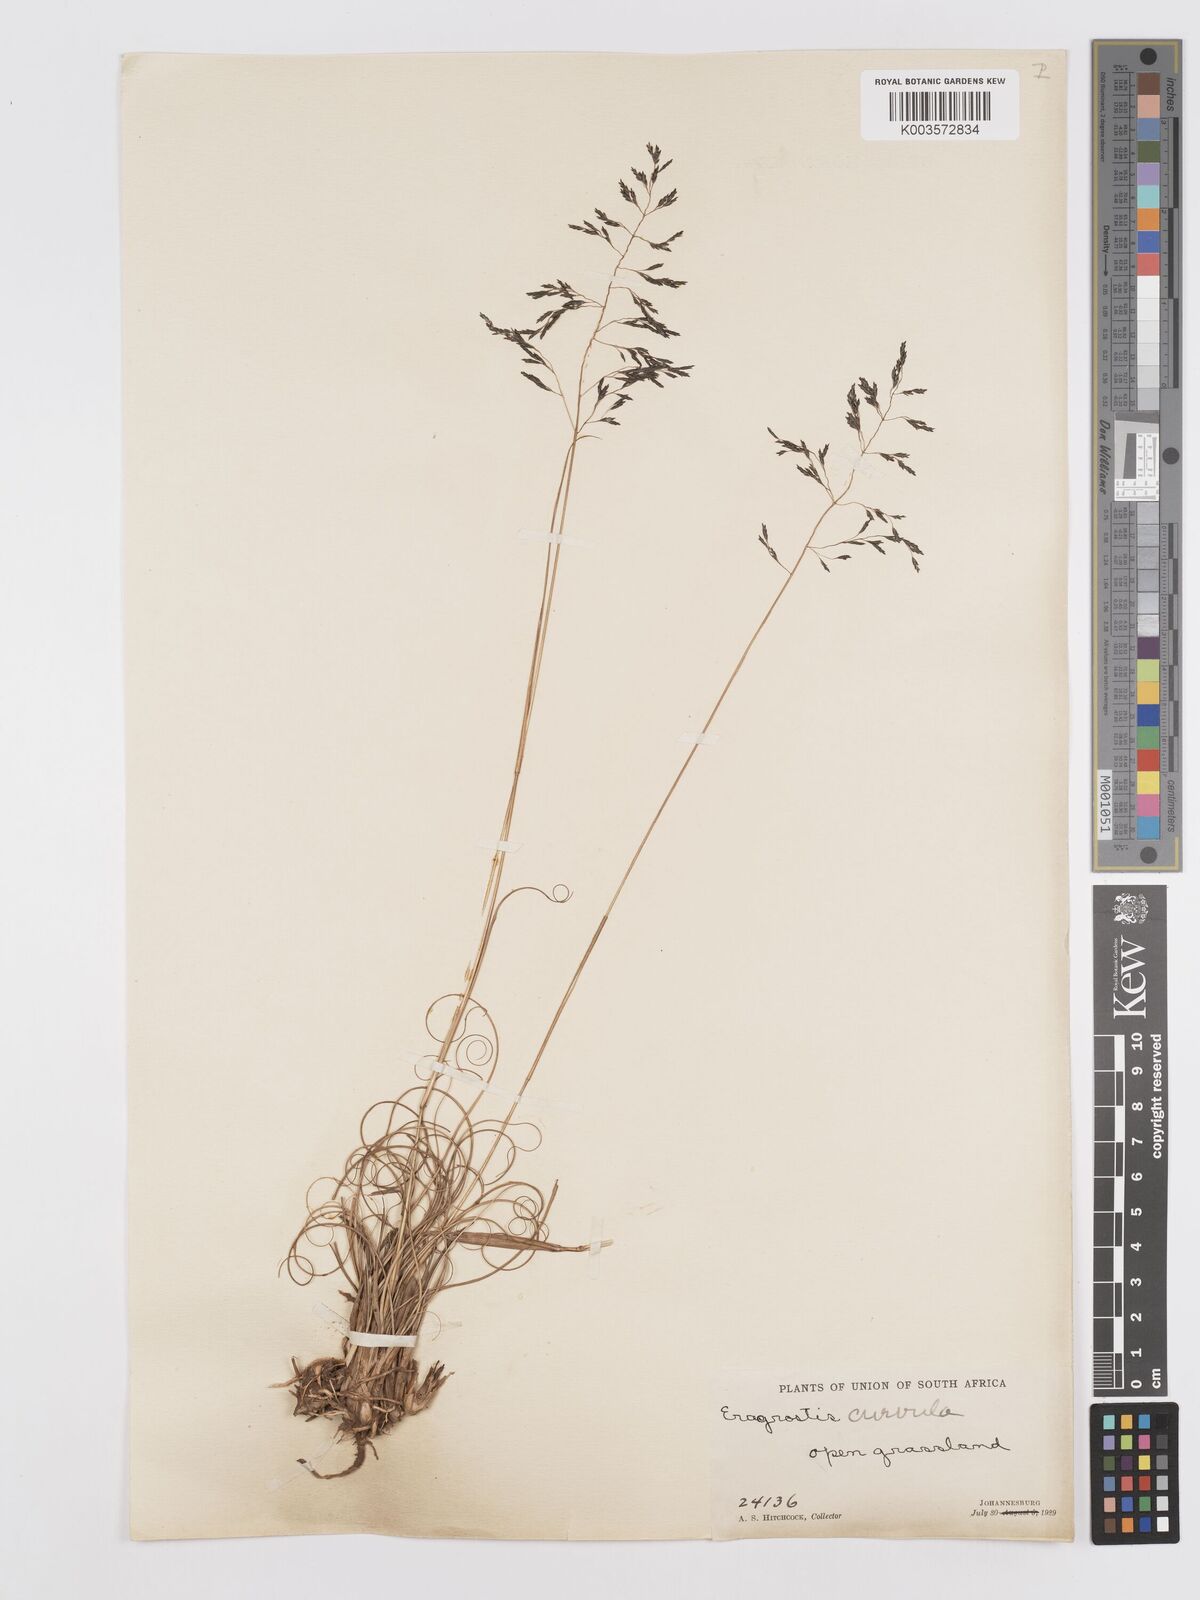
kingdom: Plantae
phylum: Tracheophyta
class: Liliopsida
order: Poales
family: Poaceae
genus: Eragrostis
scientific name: Eragrostis curvula
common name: African love-grass
